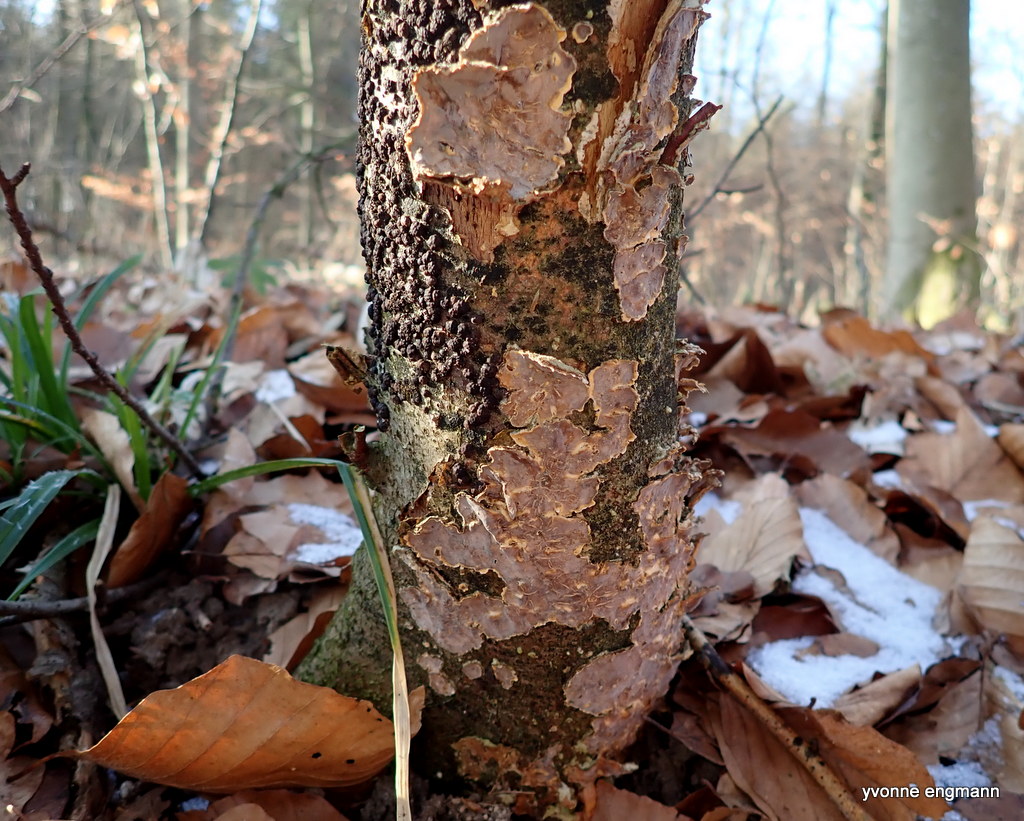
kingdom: Fungi
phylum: Basidiomycota
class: Agaricomycetes
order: Russulales
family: Stereaceae
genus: Stereum
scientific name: Stereum
